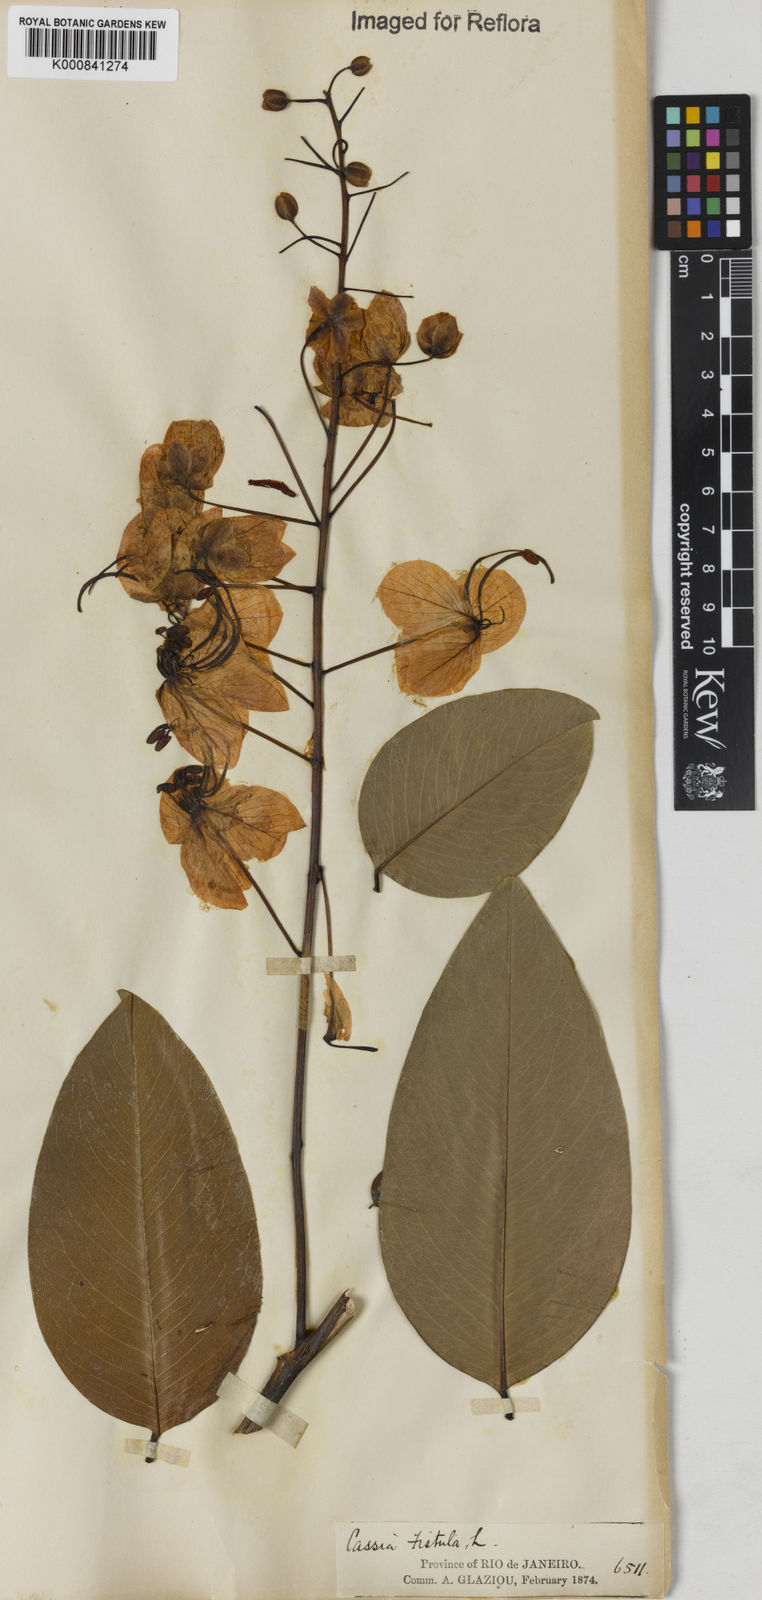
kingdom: Plantae
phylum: Tracheophyta
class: Magnoliopsida
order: Fabales
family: Fabaceae
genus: Cassia
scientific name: Cassia fistula
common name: Golden shower
